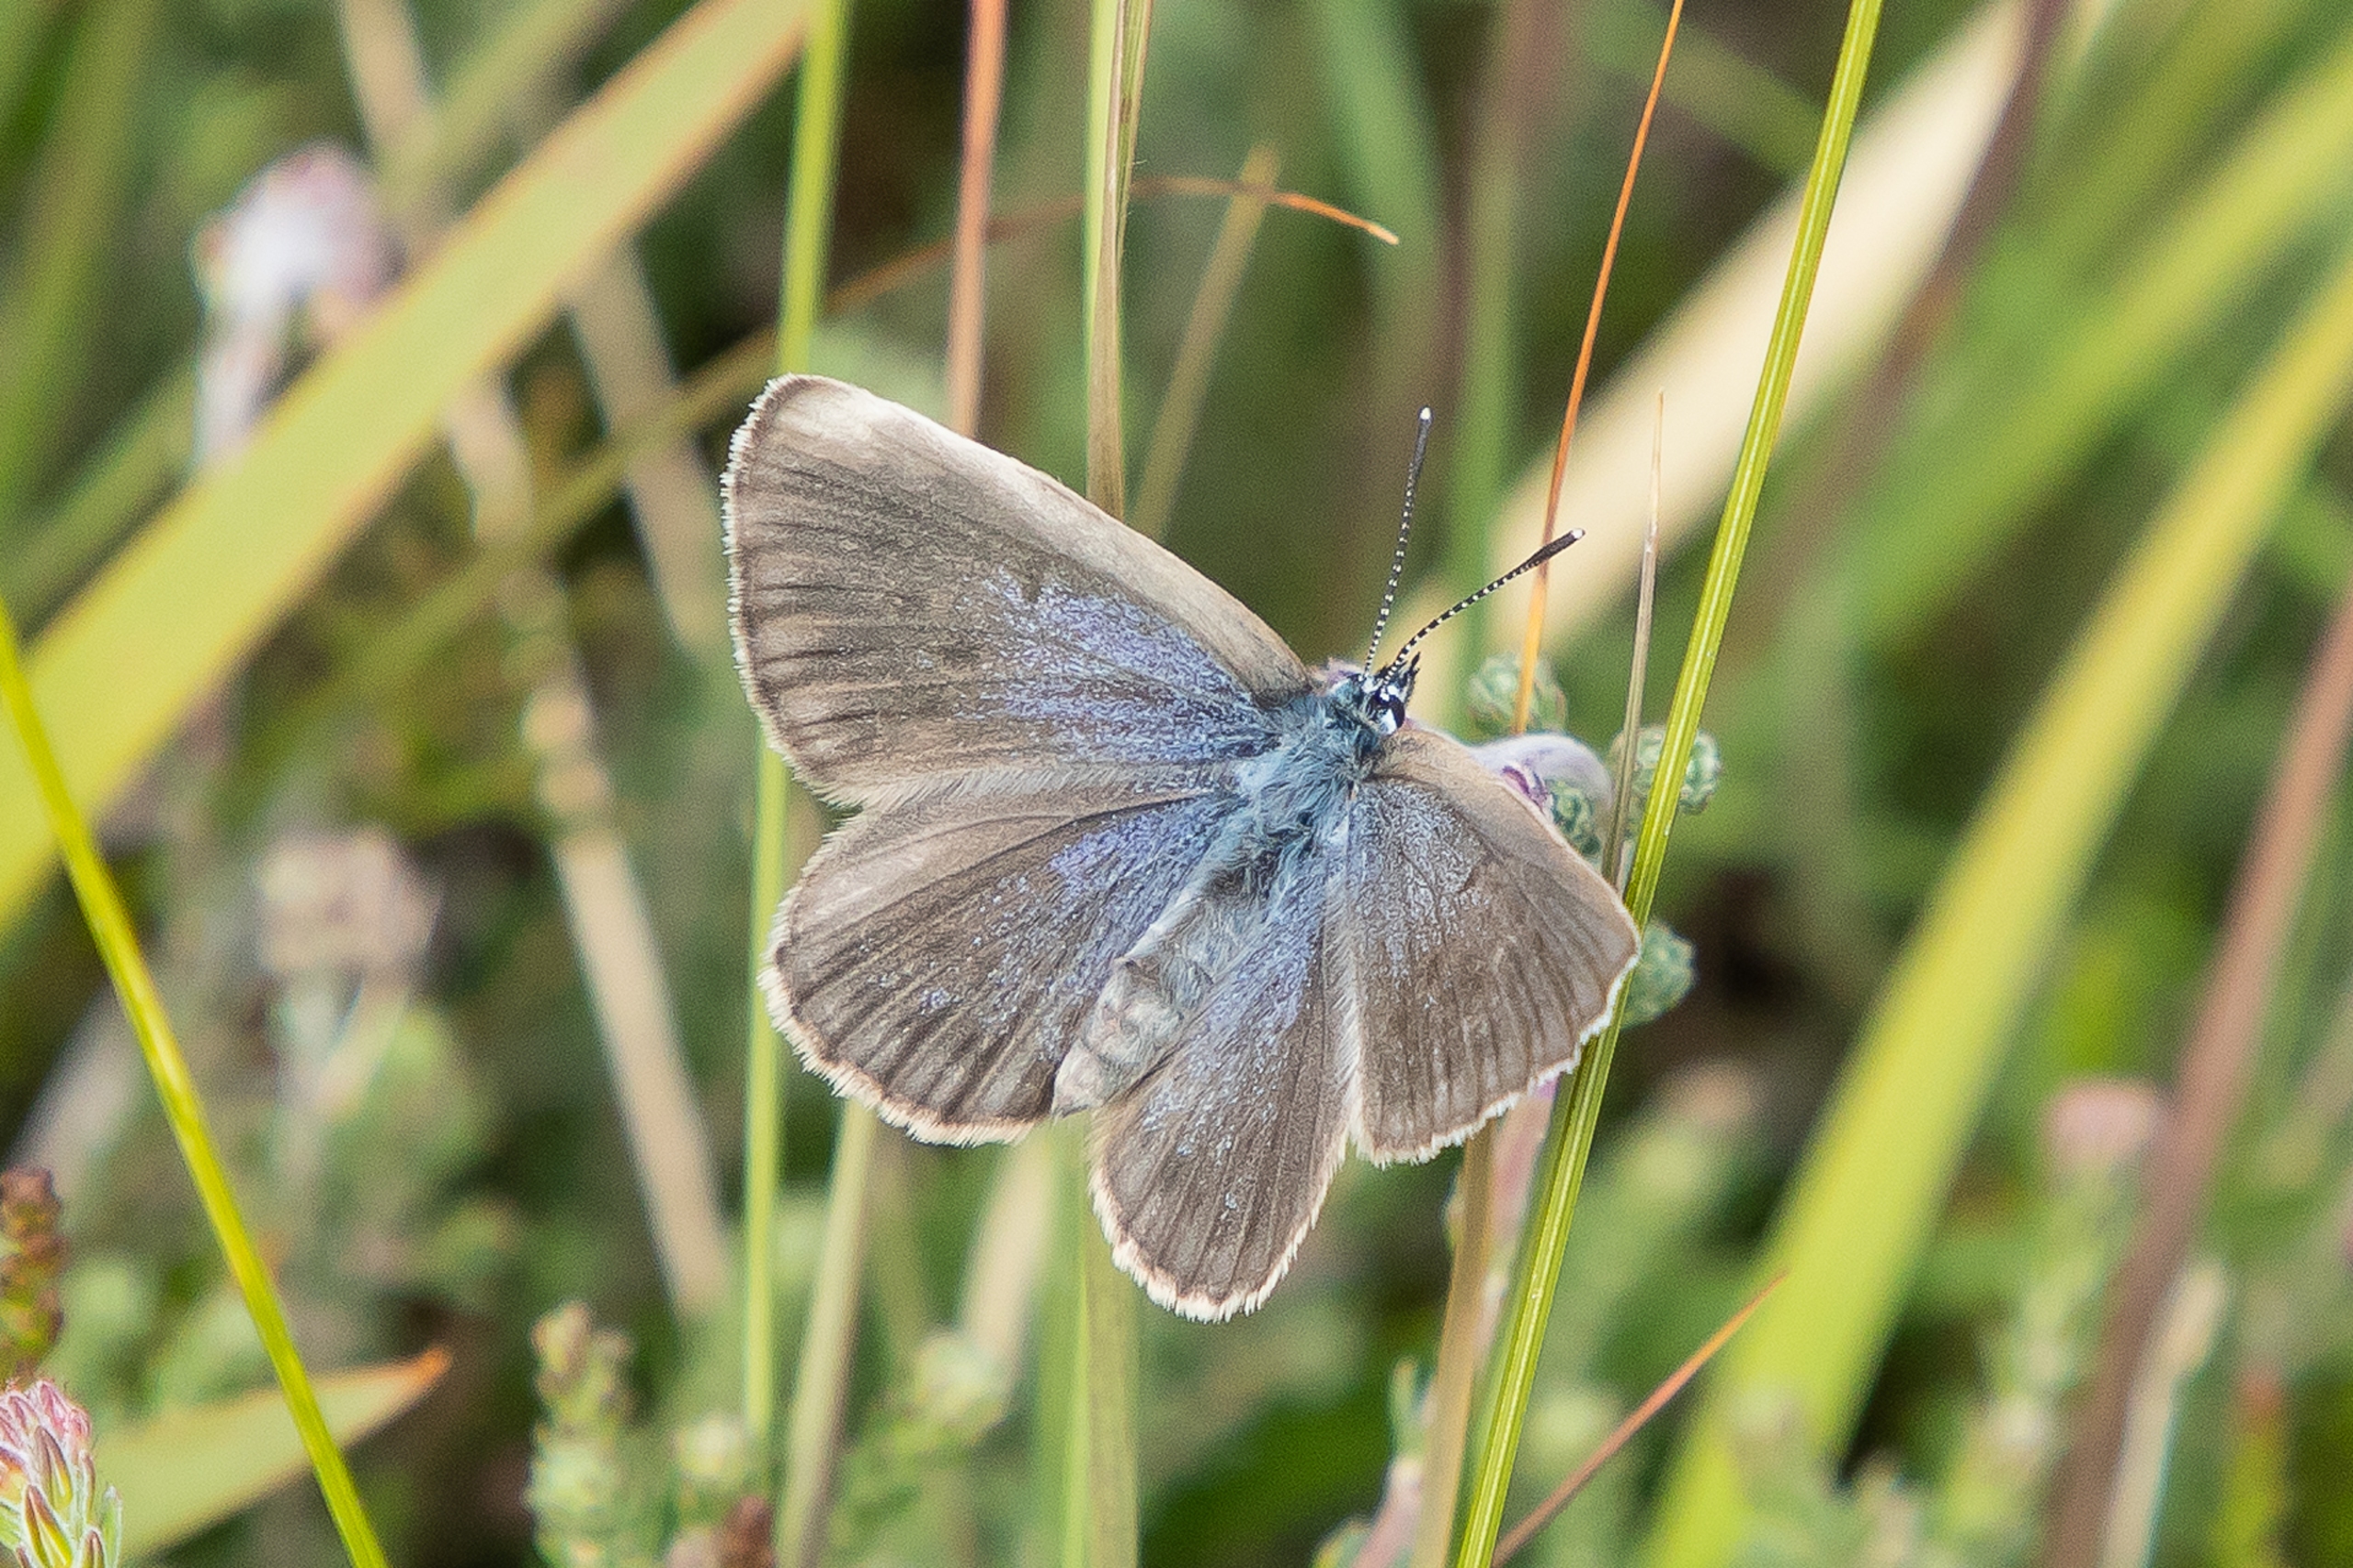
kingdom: Animalia
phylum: Arthropoda
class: Insecta
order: Lepidoptera
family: Lycaenidae
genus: Maculinea
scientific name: Maculinea alcon
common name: Ensianblåfugl
